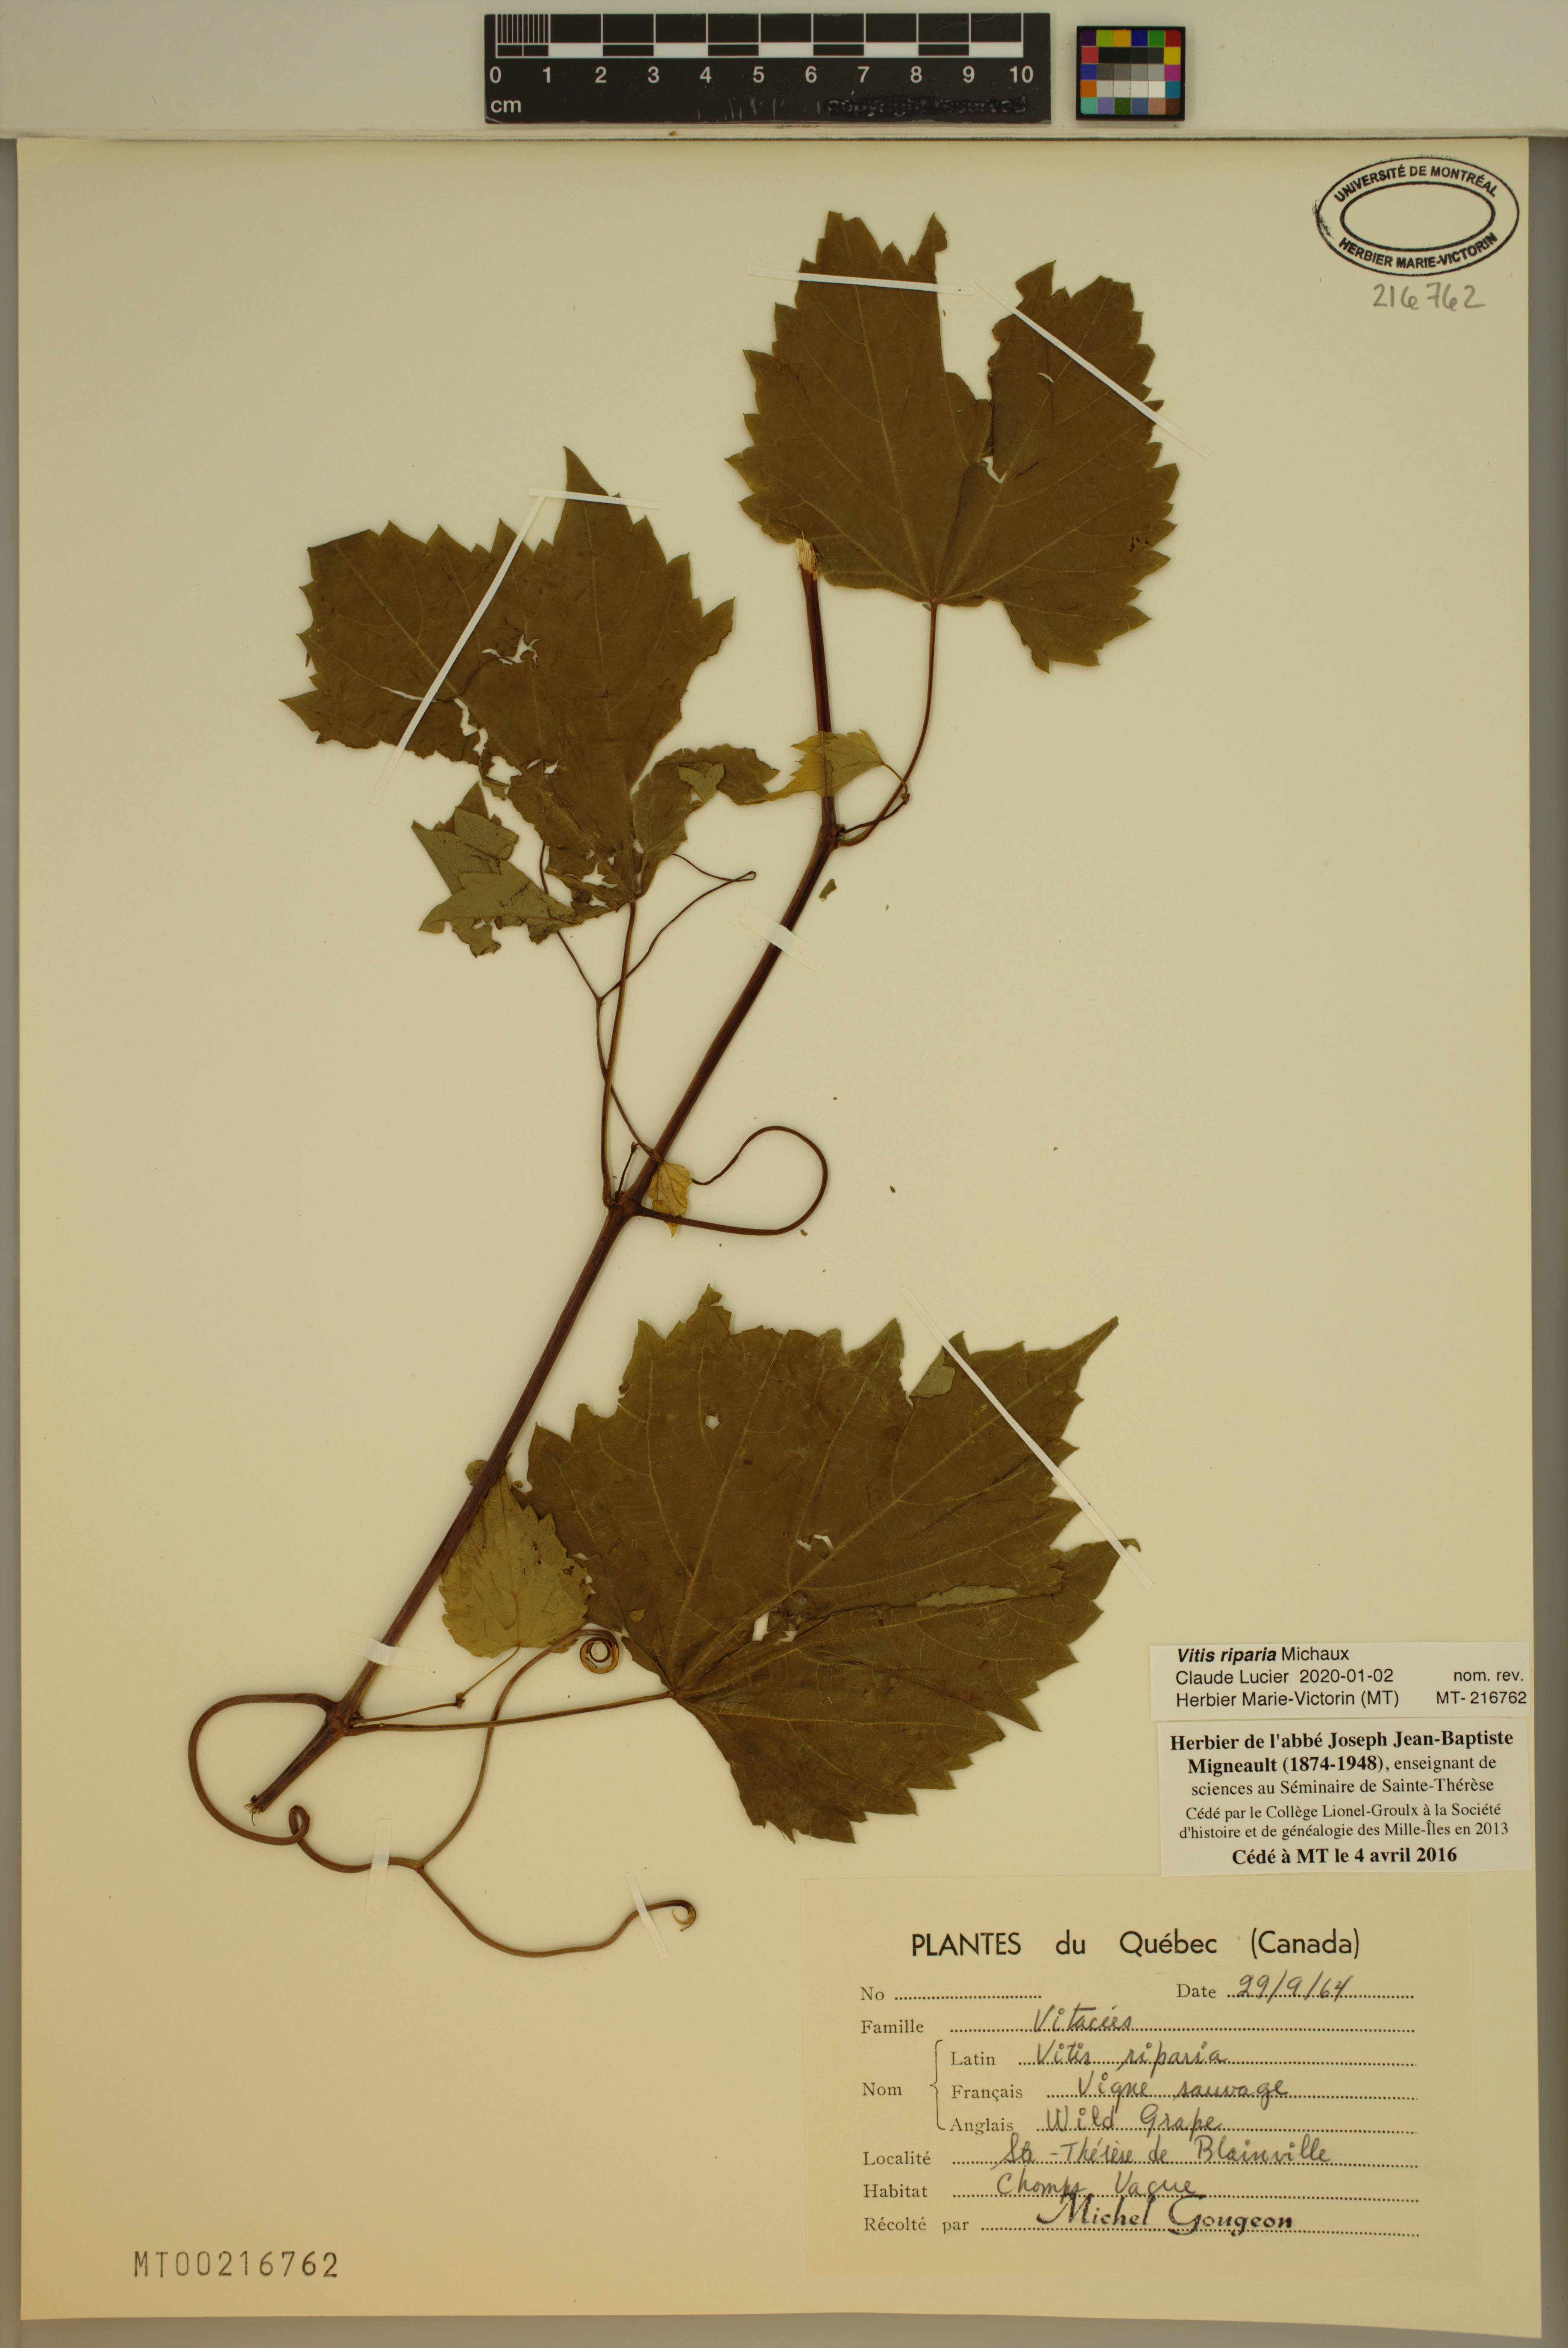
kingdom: Plantae
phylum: Tracheophyta
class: Magnoliopsida
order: Vitales
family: Vitaceae
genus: Vitis
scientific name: Vitis riparia
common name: Frost grape
